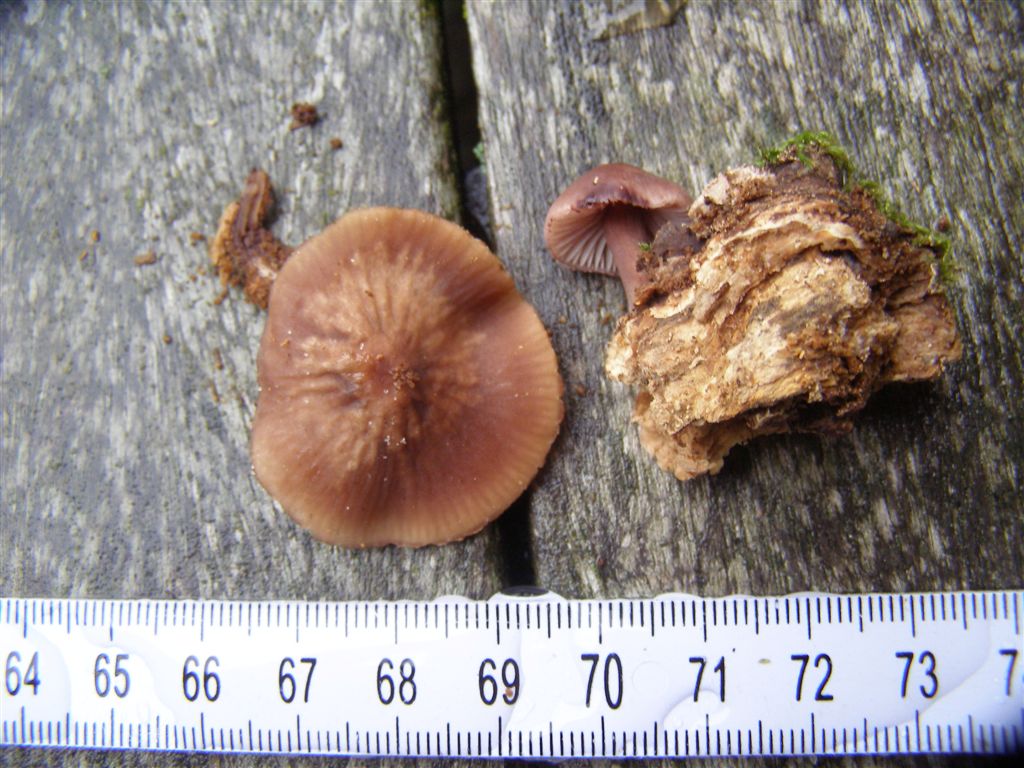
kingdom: Fungi
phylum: Basidiomycota
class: Agaricomycetes
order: Agaricales
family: Mycenaceae
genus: Mycena
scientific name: Mycena haematopus
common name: blødende huesvamp
